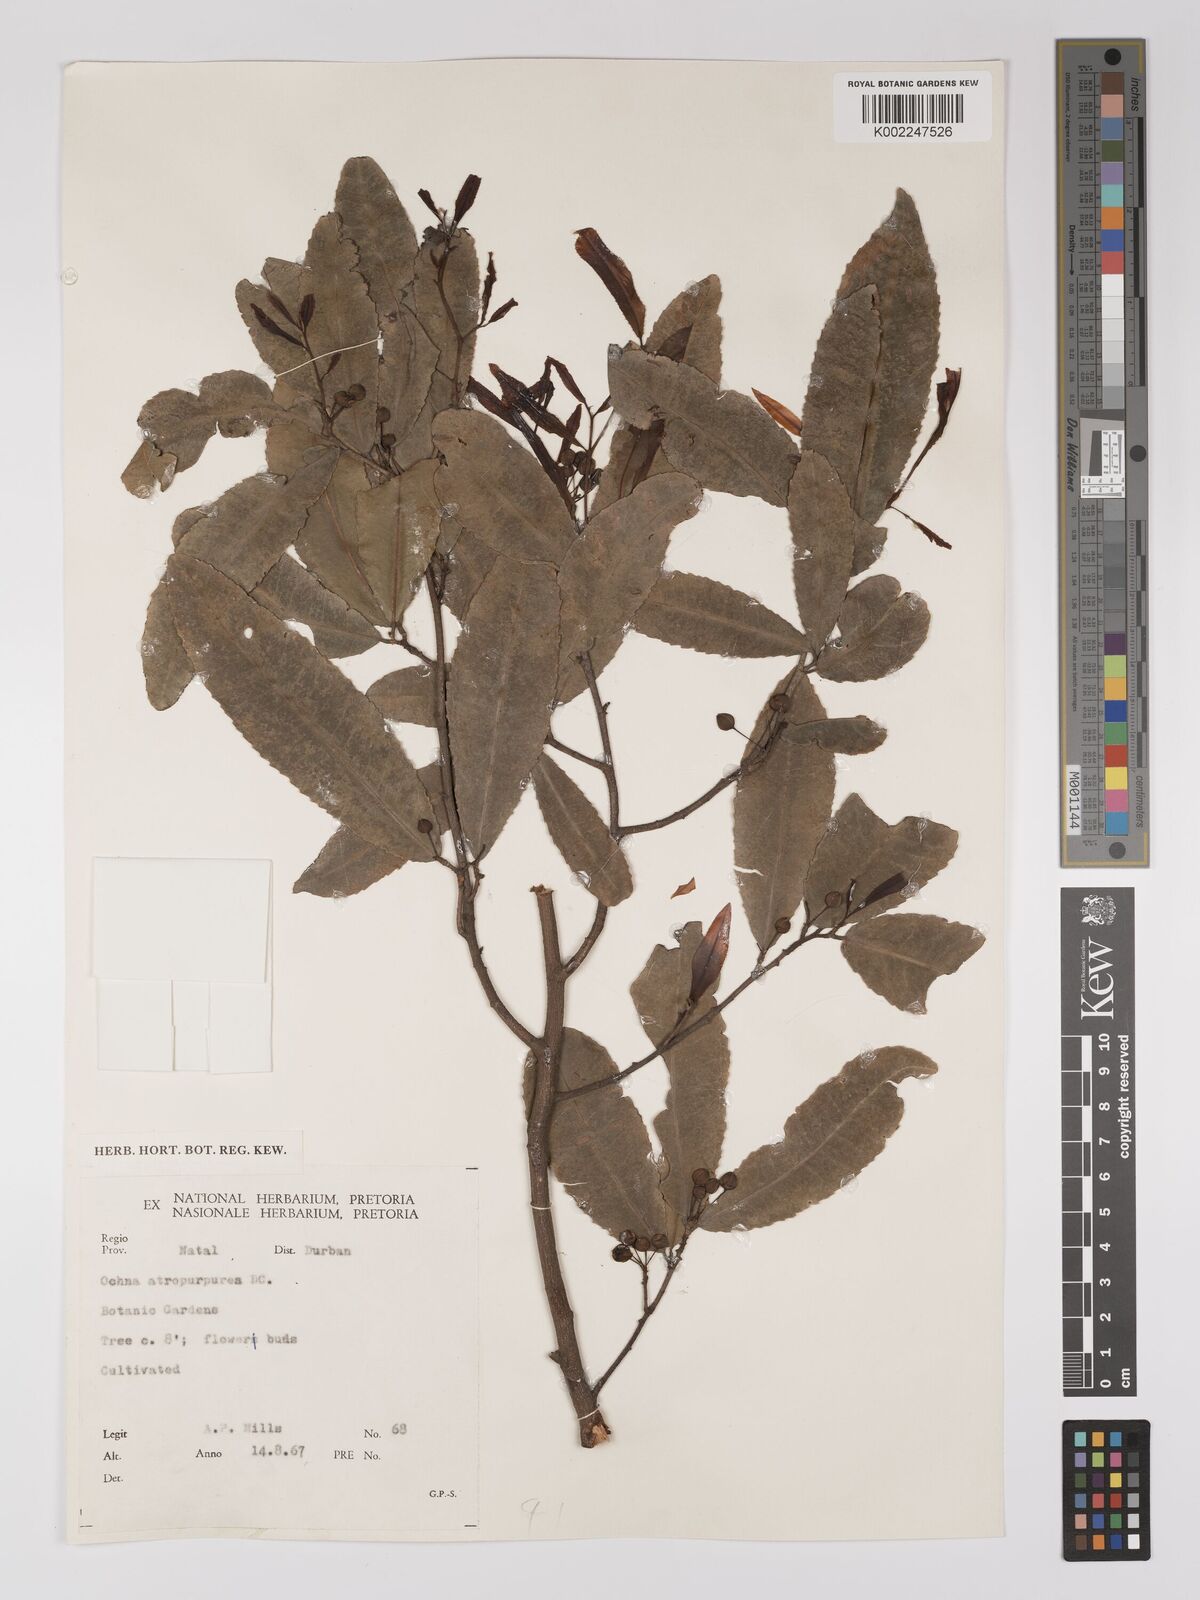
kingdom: Plantae
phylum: Tracheophyta
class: Magnoliopsida
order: Malpighiales
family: Ochnaceae
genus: Ochna
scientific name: Ochna
